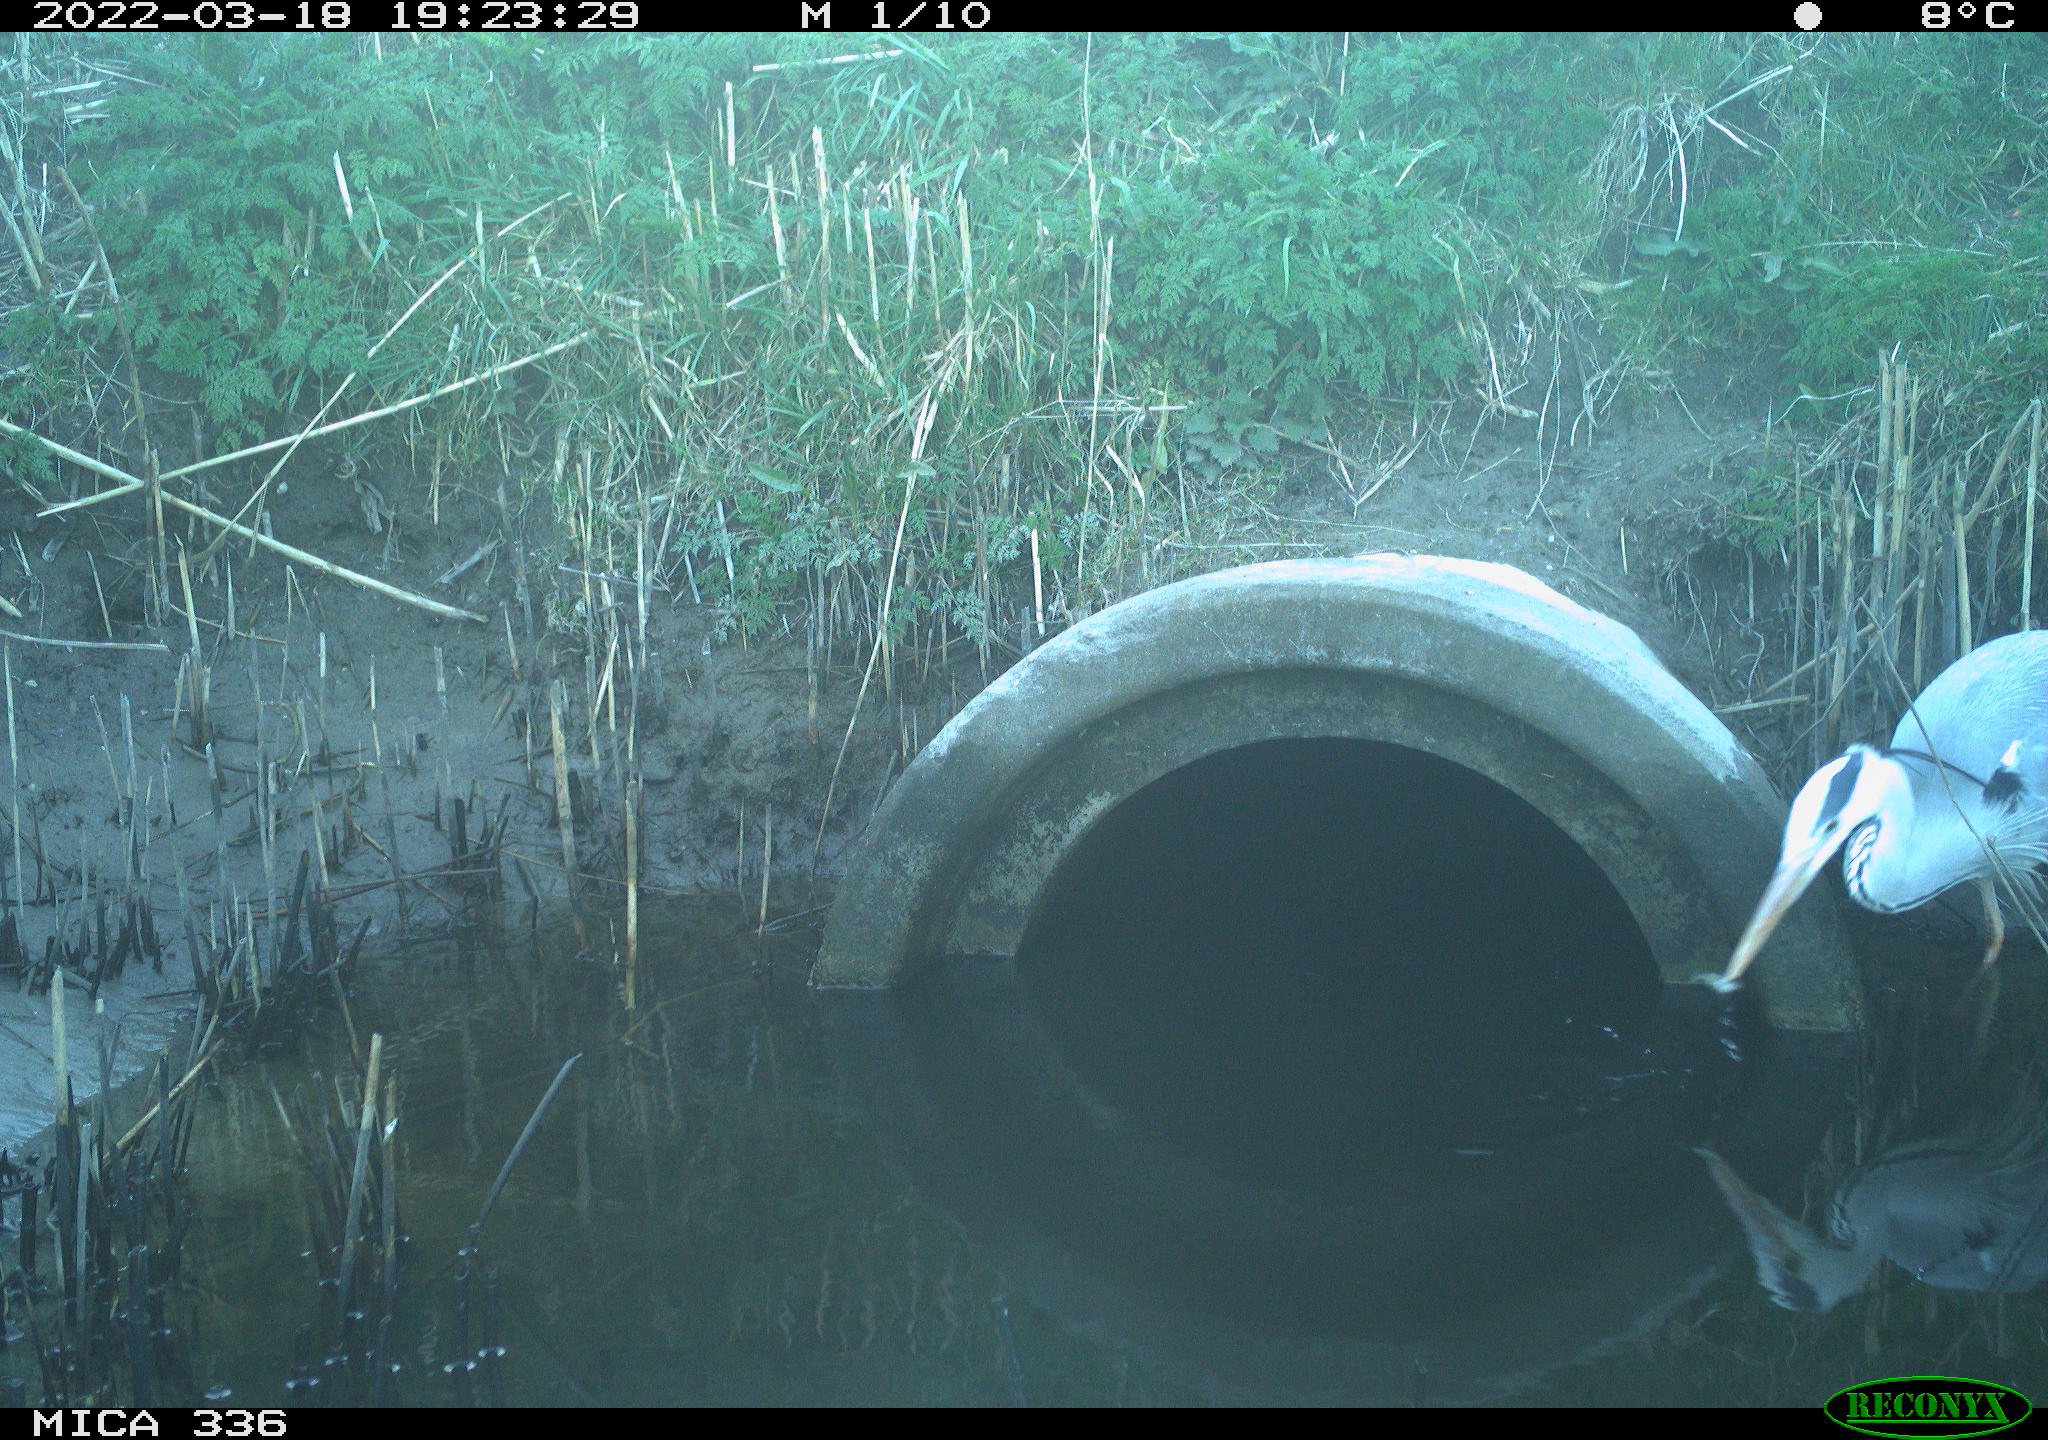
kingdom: Animalia
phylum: Chordata
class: Aves
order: Pelecaniformes
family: Ardeidae
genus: Ardea
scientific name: Ardea cinerea
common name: Grey heron
